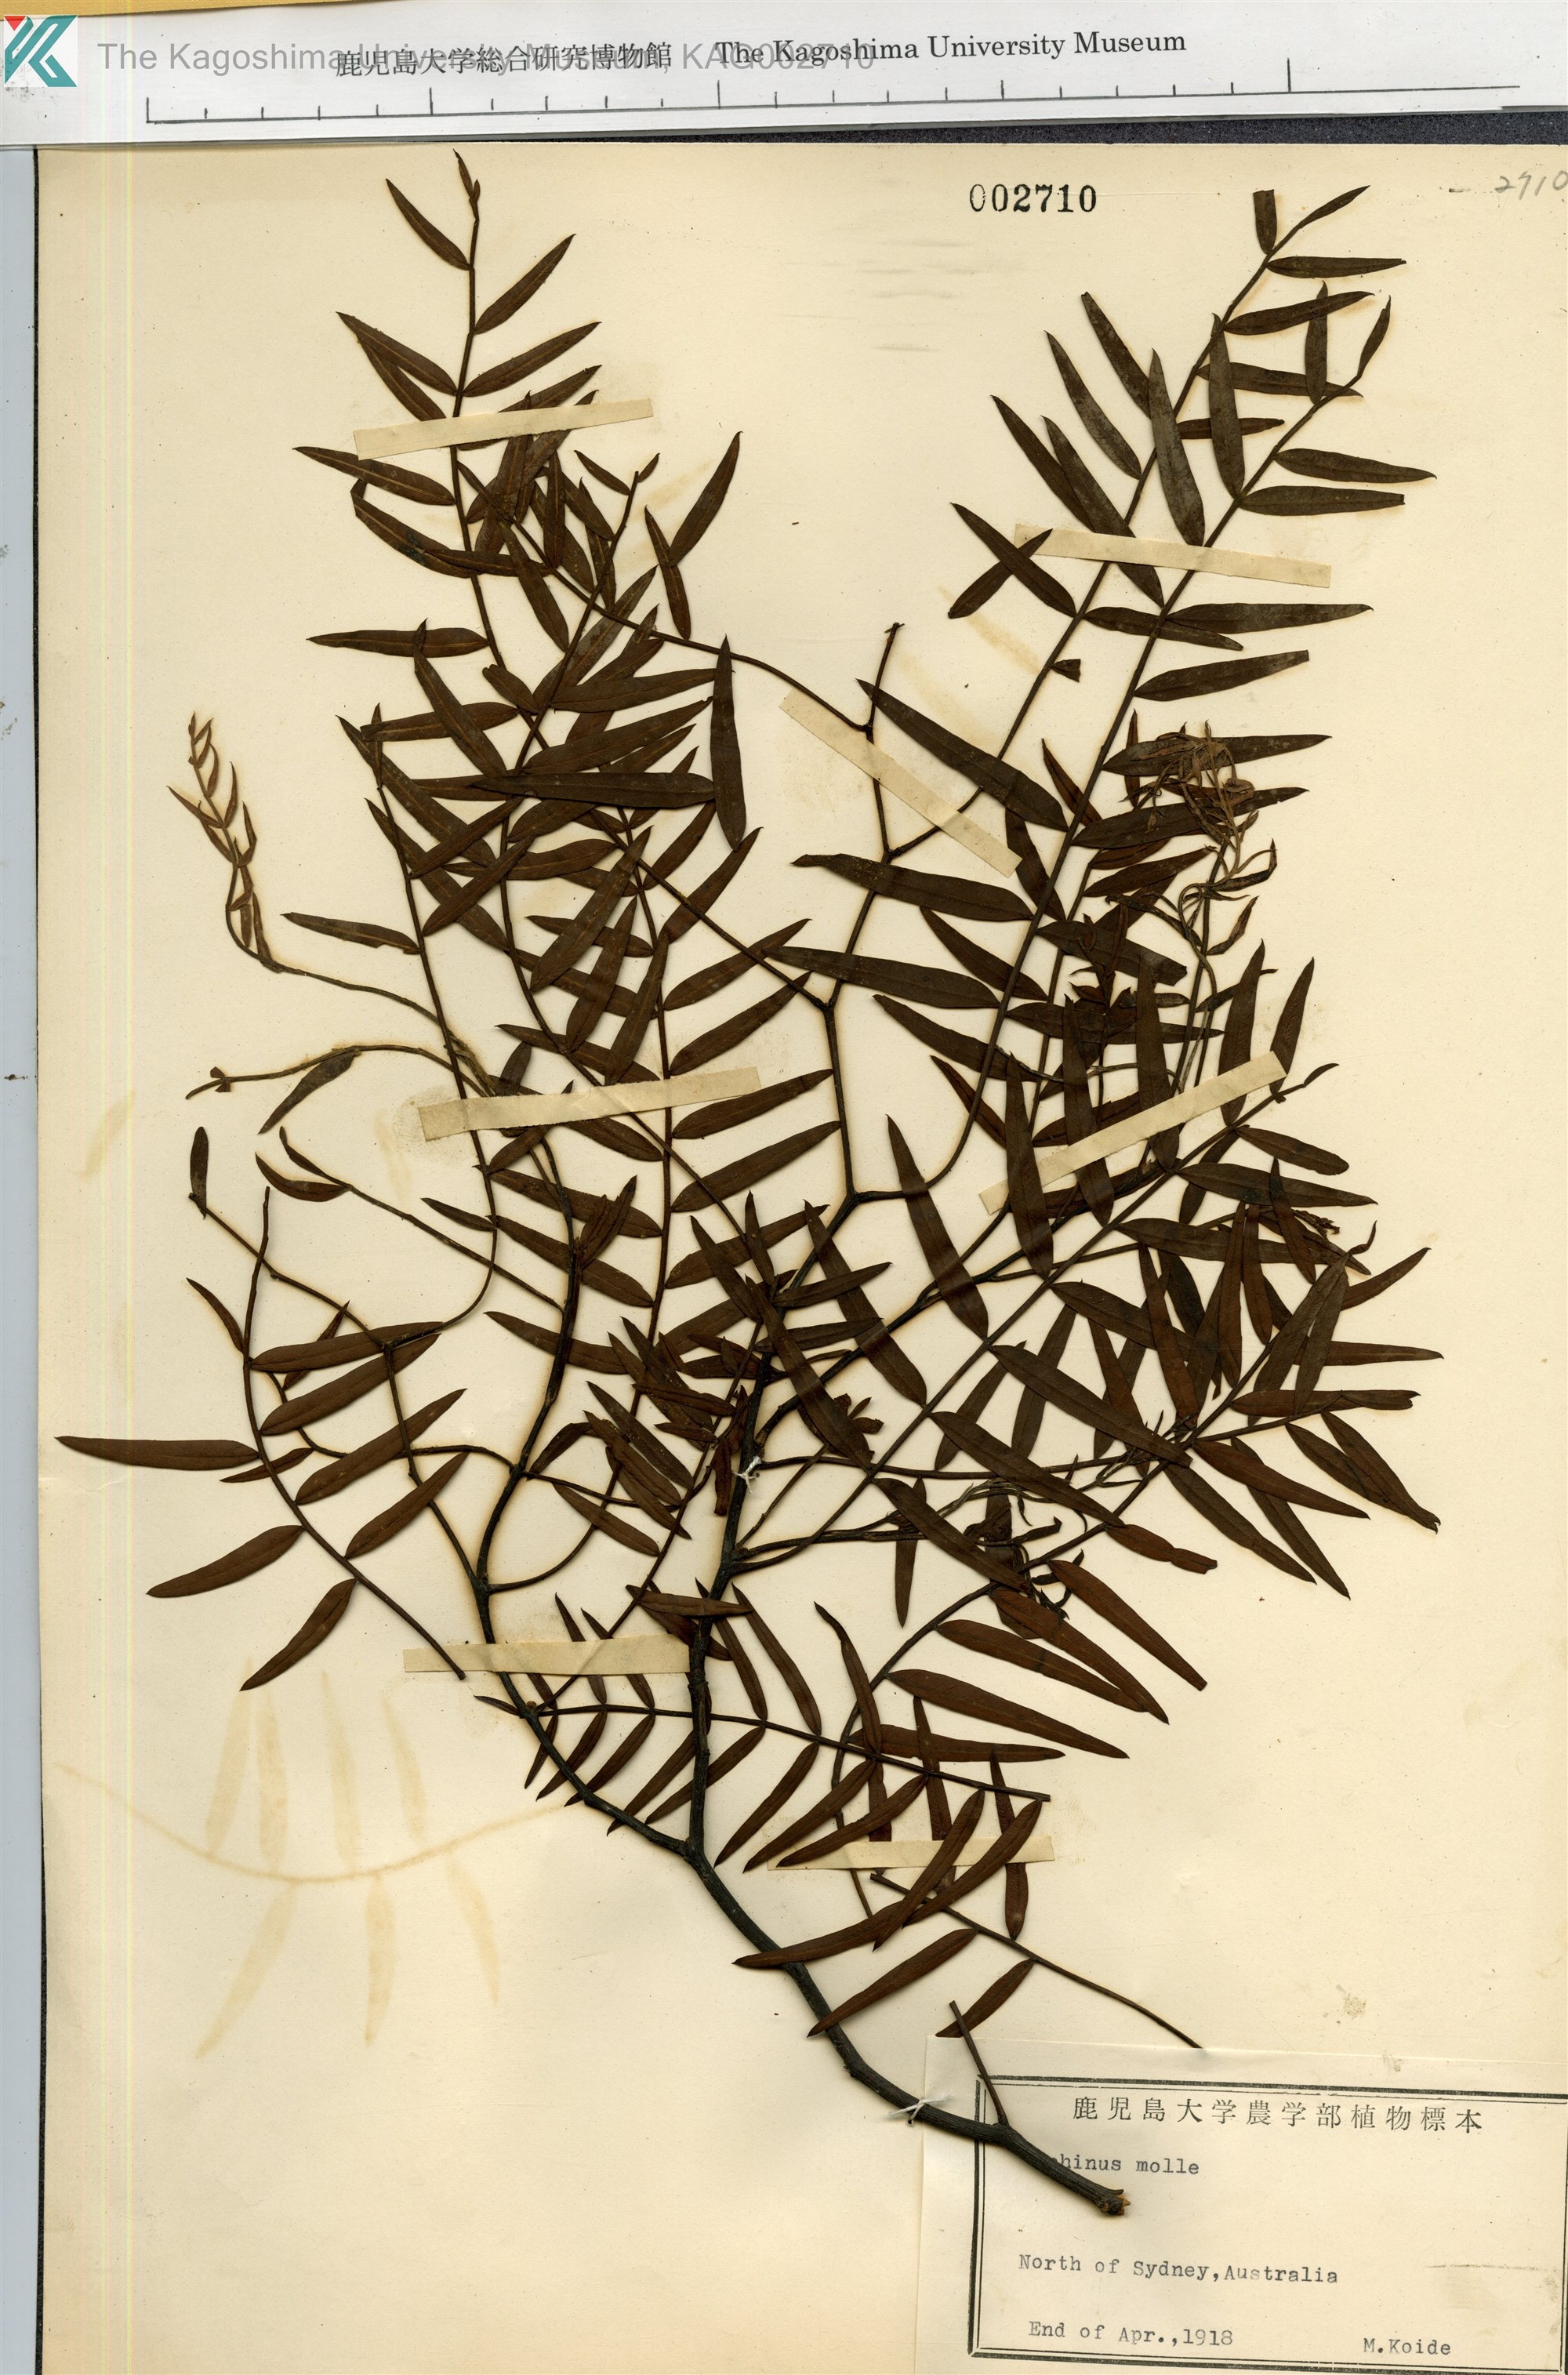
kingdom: Plantae
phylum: Tracheophyta
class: Magnoliopsida
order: Sapindales
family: Anacardiaceae
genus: Schinus
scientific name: Schinus molle
